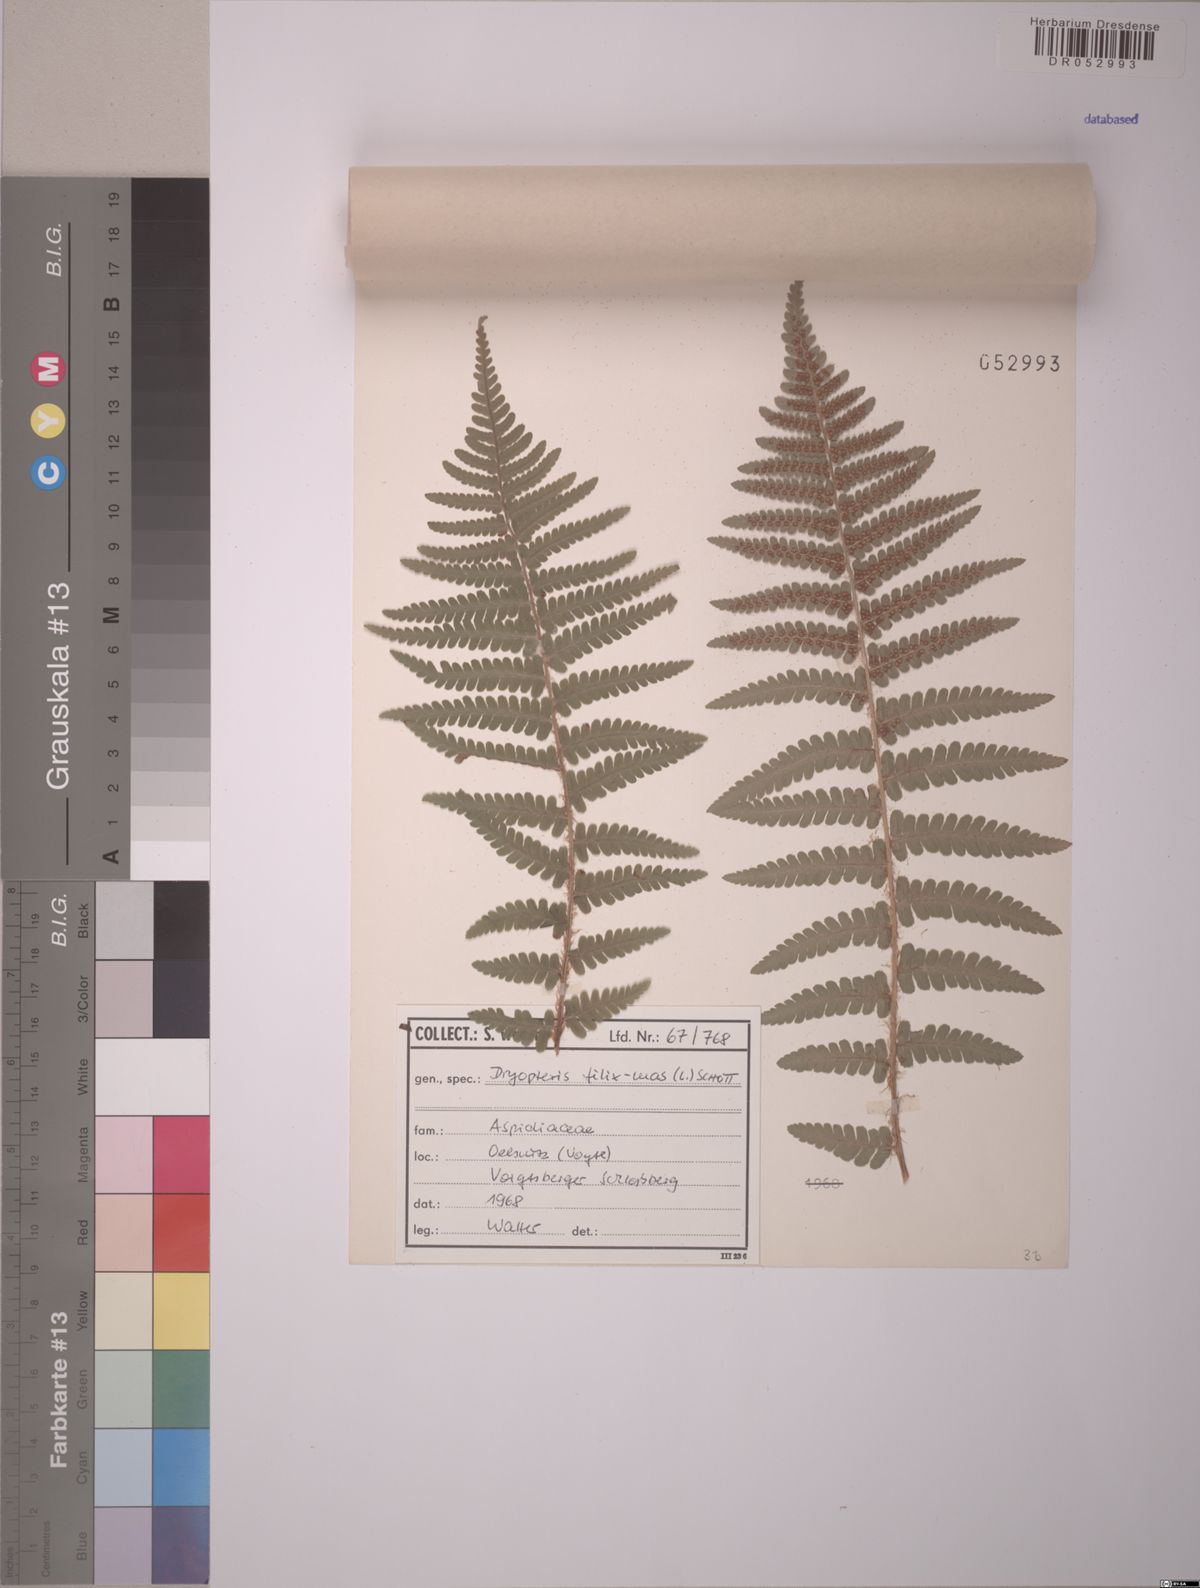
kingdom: Plantae
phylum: Tracheophyta
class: Polypodiopsida
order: Polypodiales
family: Dryopteridaceae
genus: Dryopteris
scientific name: Dryopteris filix-mas
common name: Male fern
